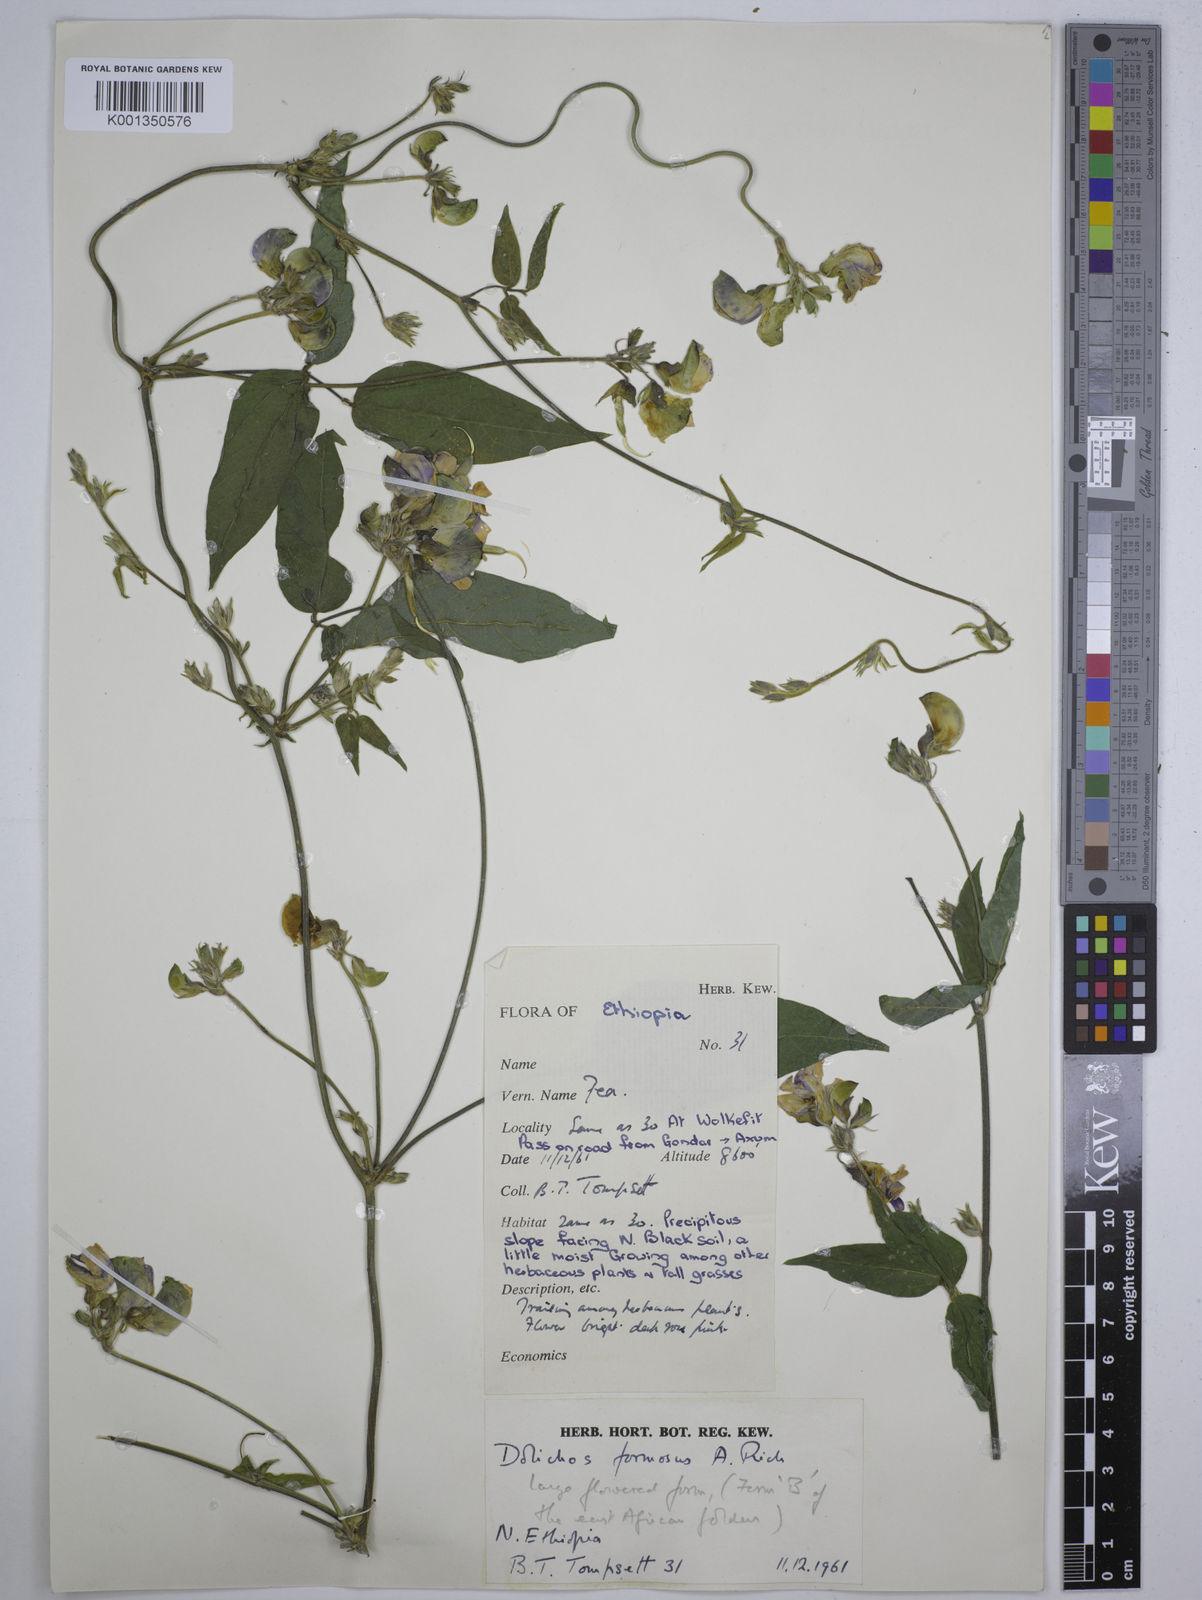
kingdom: Plantae
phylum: Tracheophyta
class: Magnoliopsida
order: Fabales
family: Fabaceae
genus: Dolichos
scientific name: Dolichos
